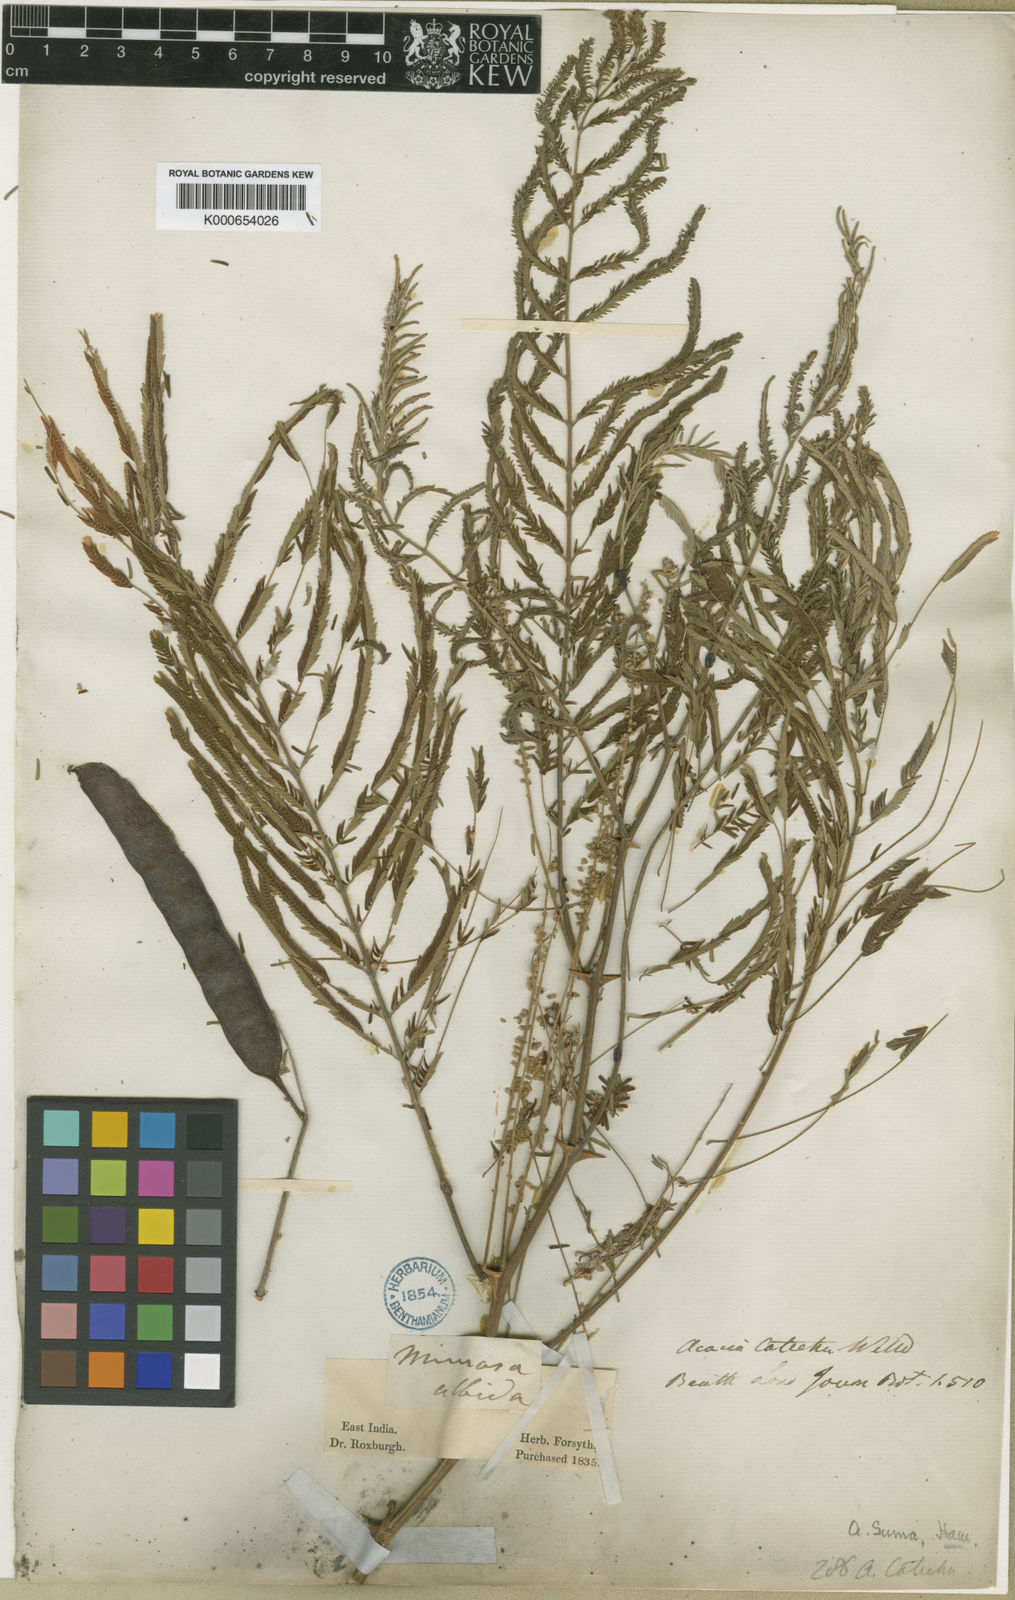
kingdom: Plantae
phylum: Tracheophyta
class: Magnoliopsida
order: Fabales
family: Fabaceae
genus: Senegalia
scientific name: Senegalia catechu
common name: Black cutch
